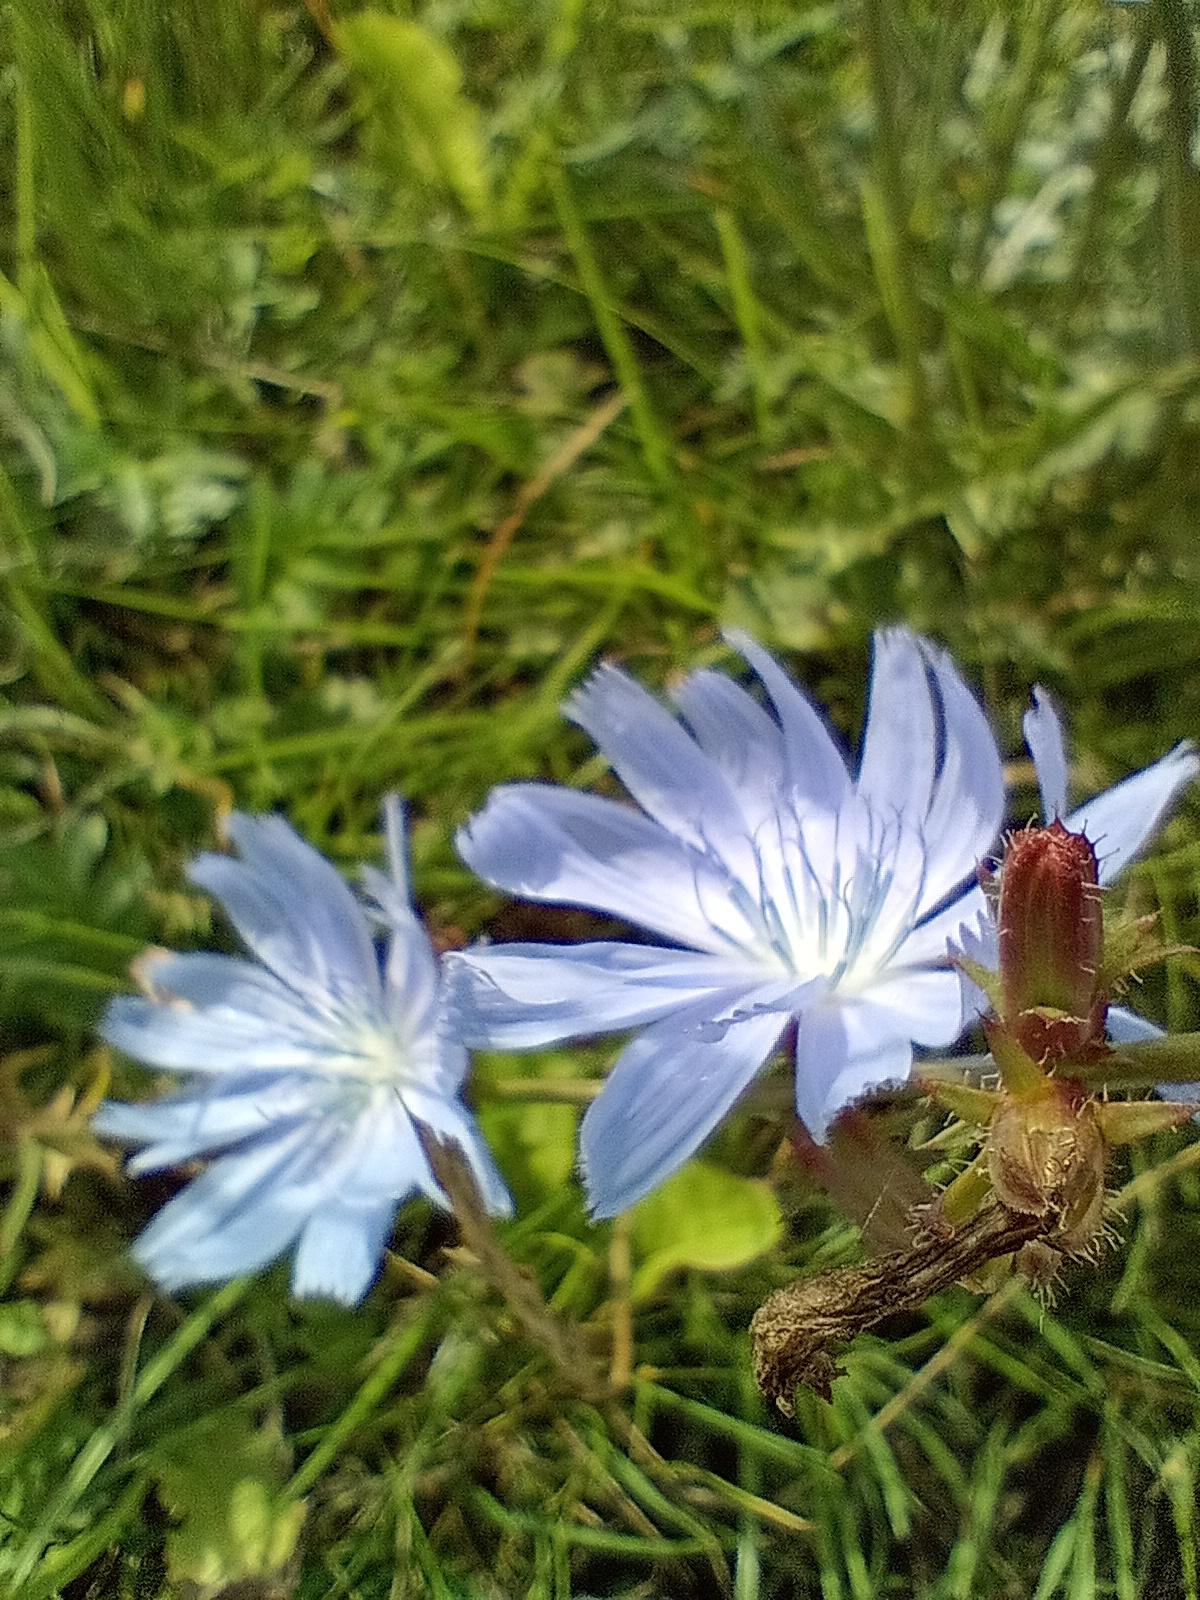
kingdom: Plantae
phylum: Tracheophyta
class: Magnoliopsida
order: Asterales
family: Asteraceae
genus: Cichorium
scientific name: Cichorium intybus
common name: Cikorie
